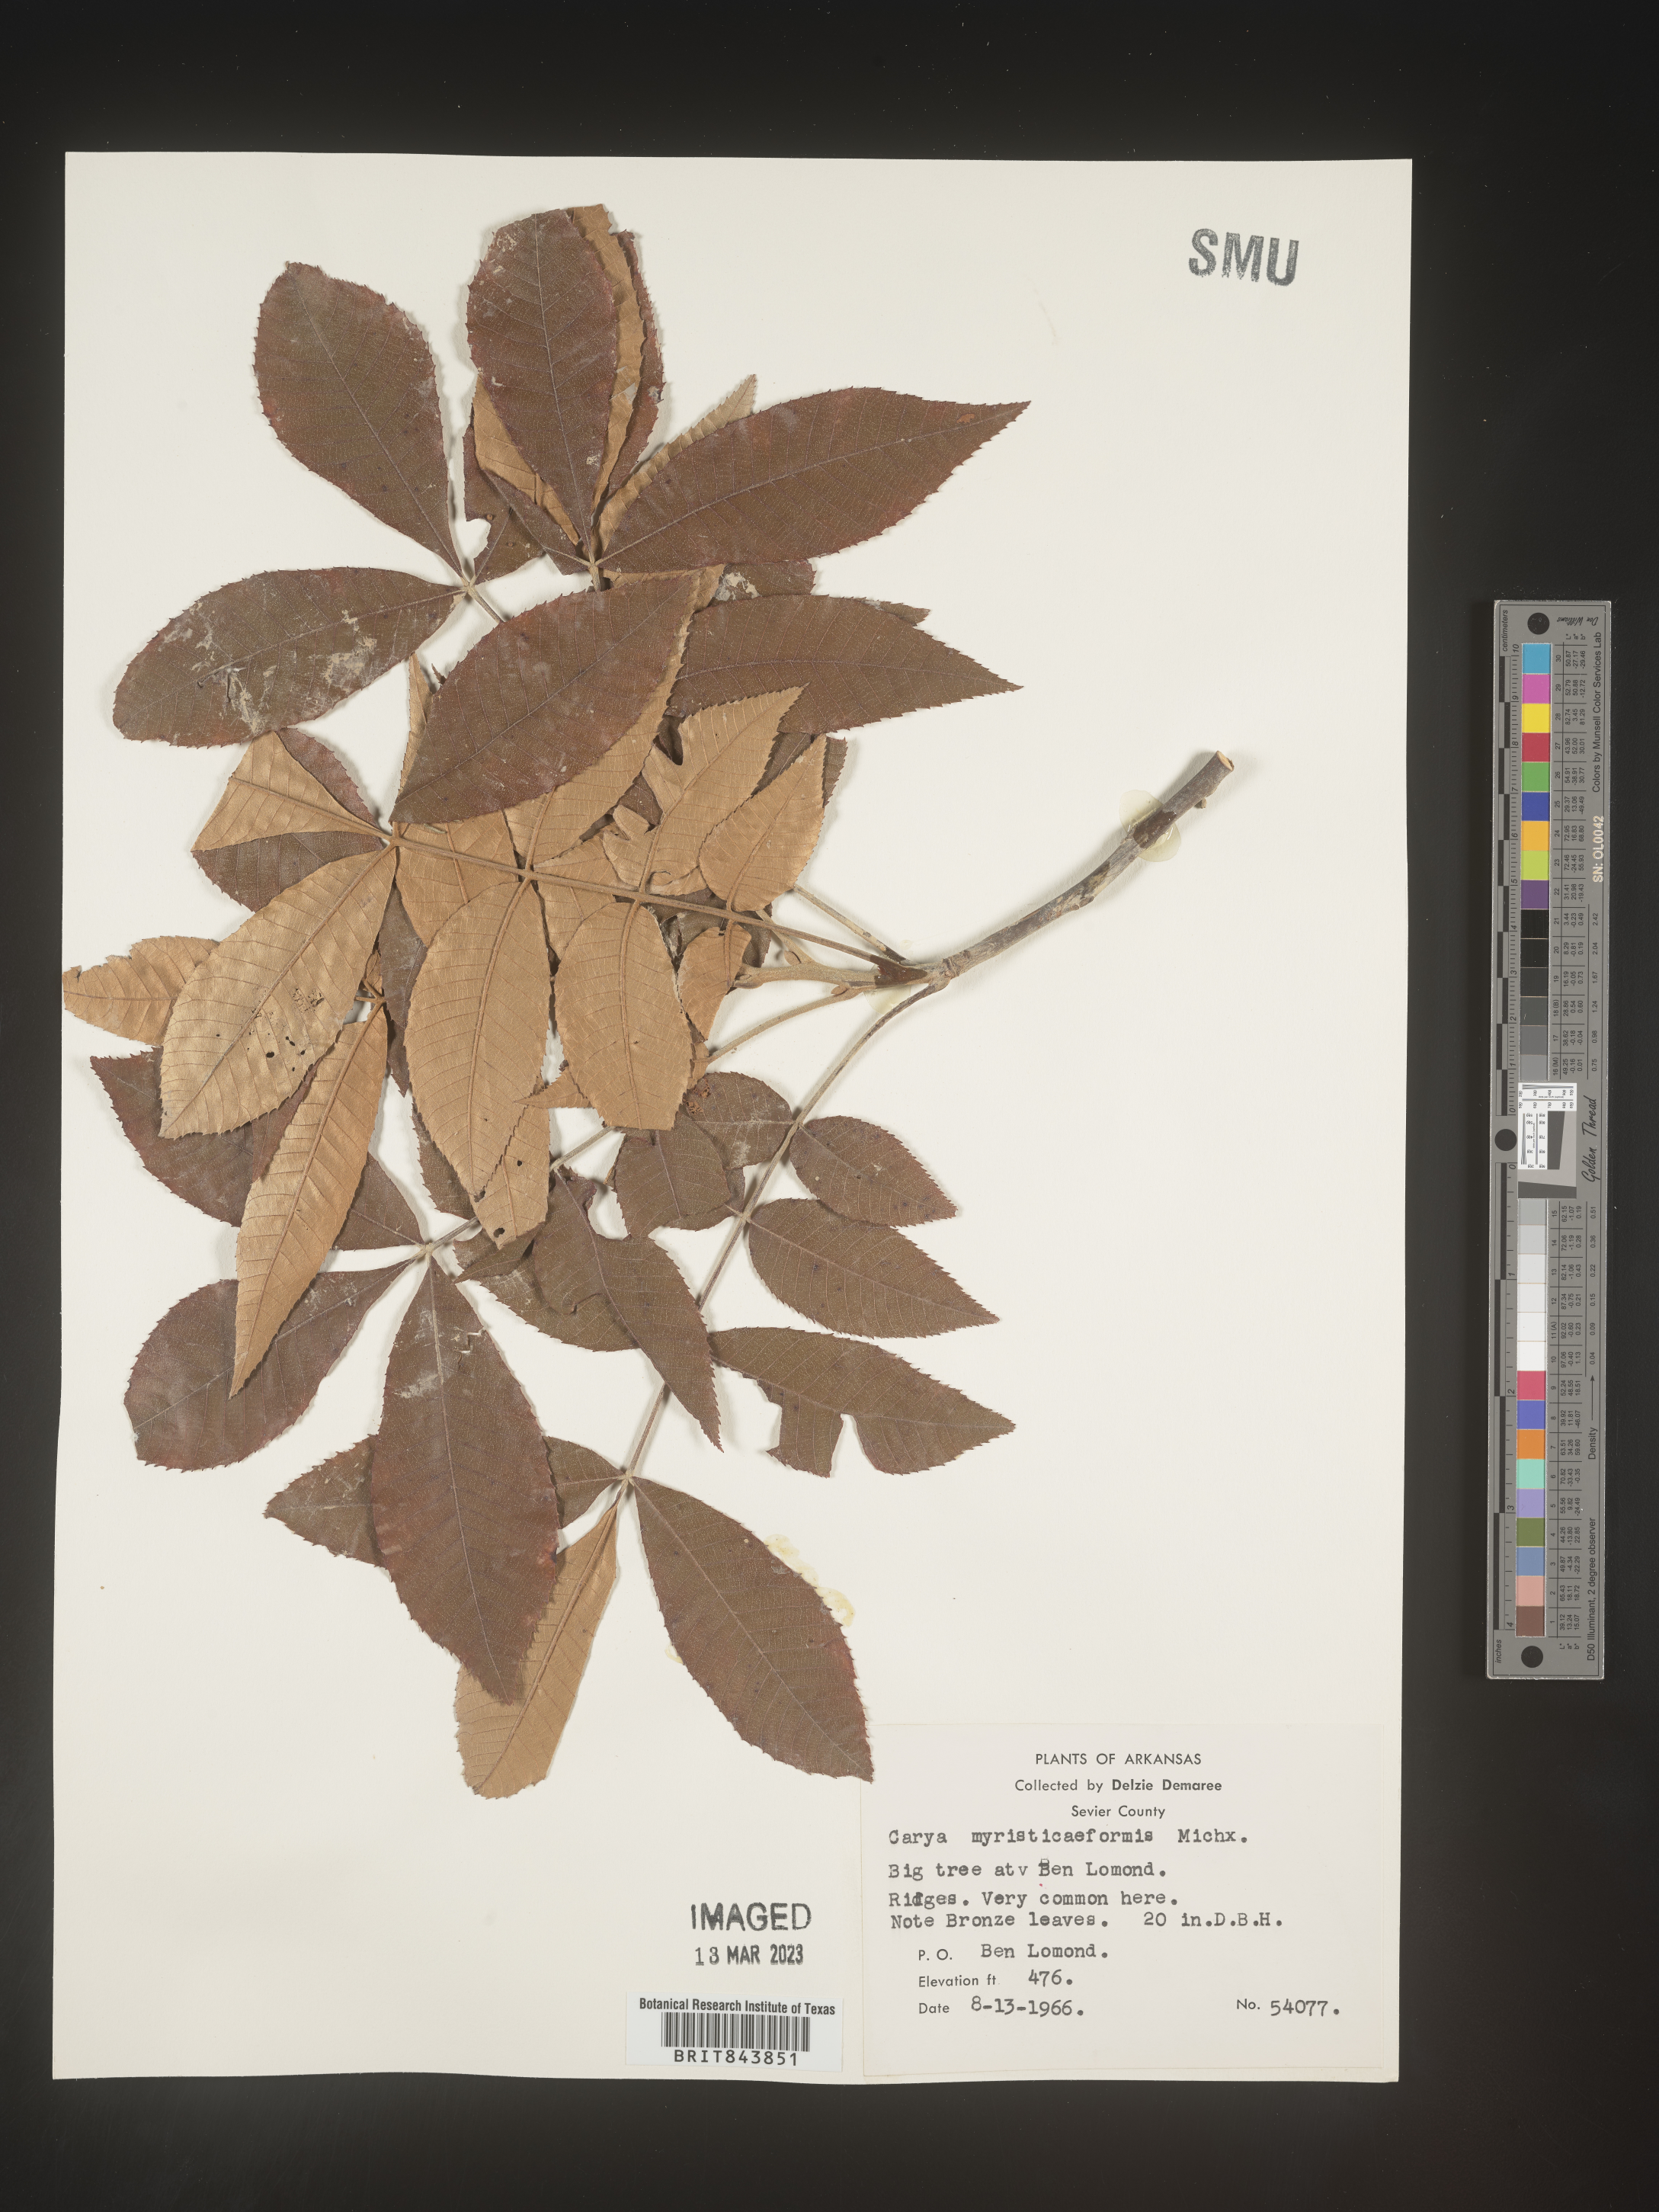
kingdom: Plantae
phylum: Tracheophyta
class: Magnoliopsida
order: Fagales
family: Juglandaceae
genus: Carya
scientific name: Carya myristiciformis
